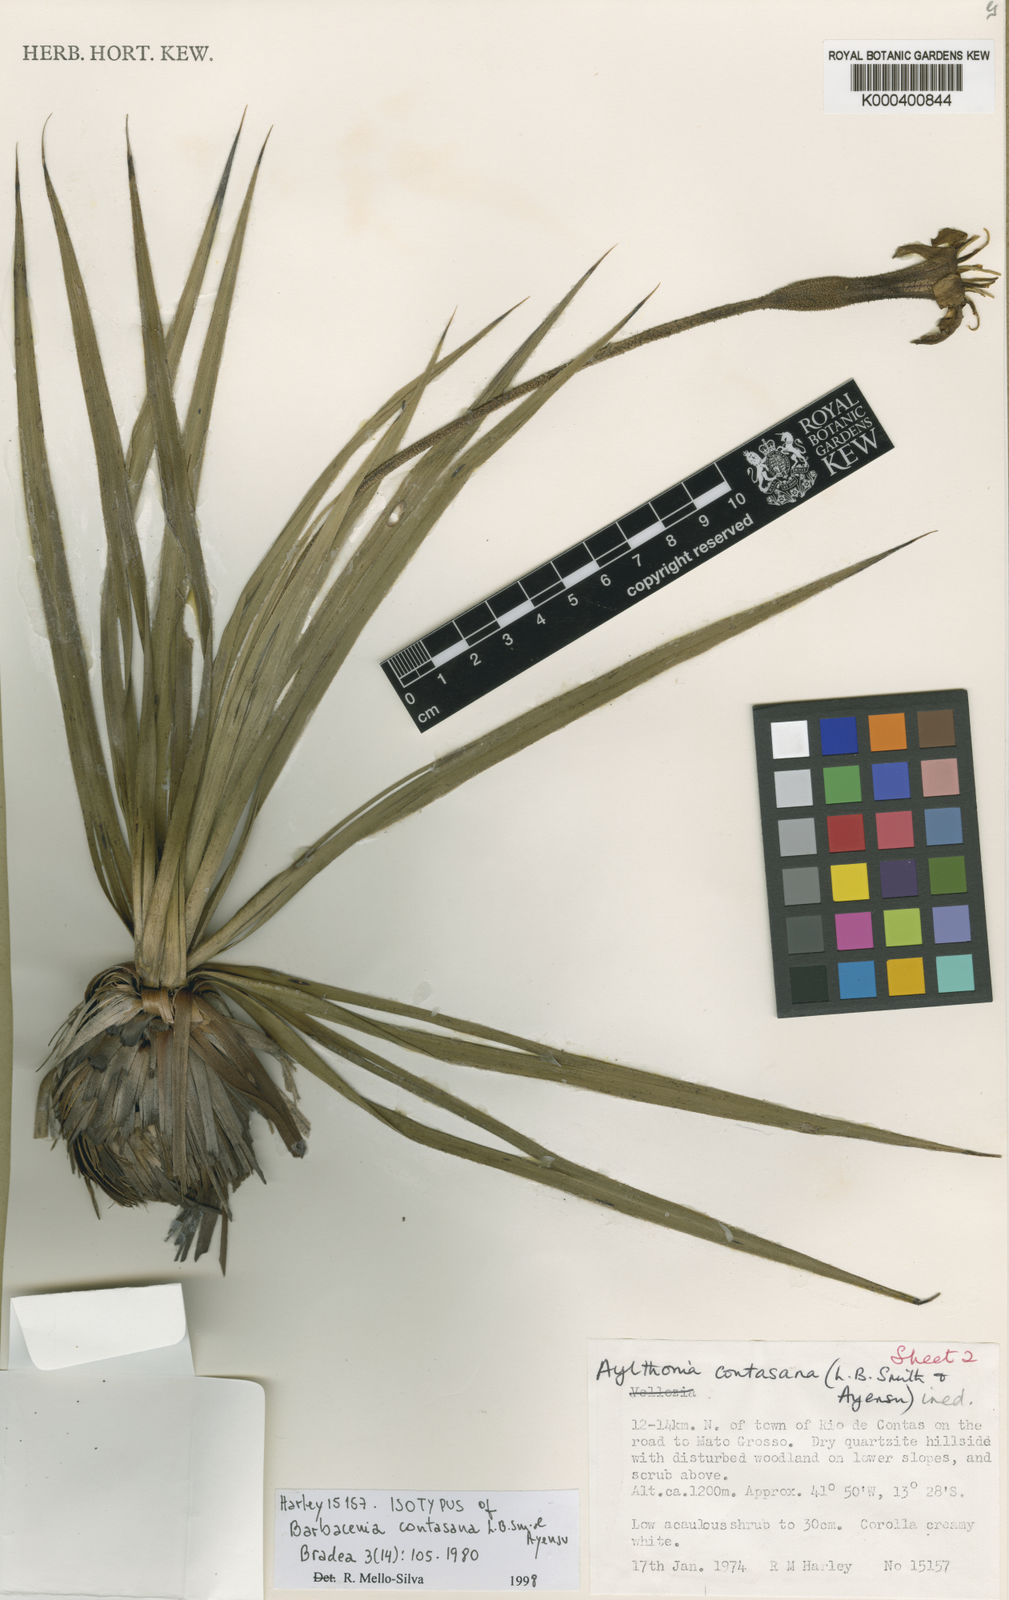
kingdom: Plantae
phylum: Tracheophyta
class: Liliopsida
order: Pandanales
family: Velloziaceae
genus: Barbacenia
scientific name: Barbacenia contasana
